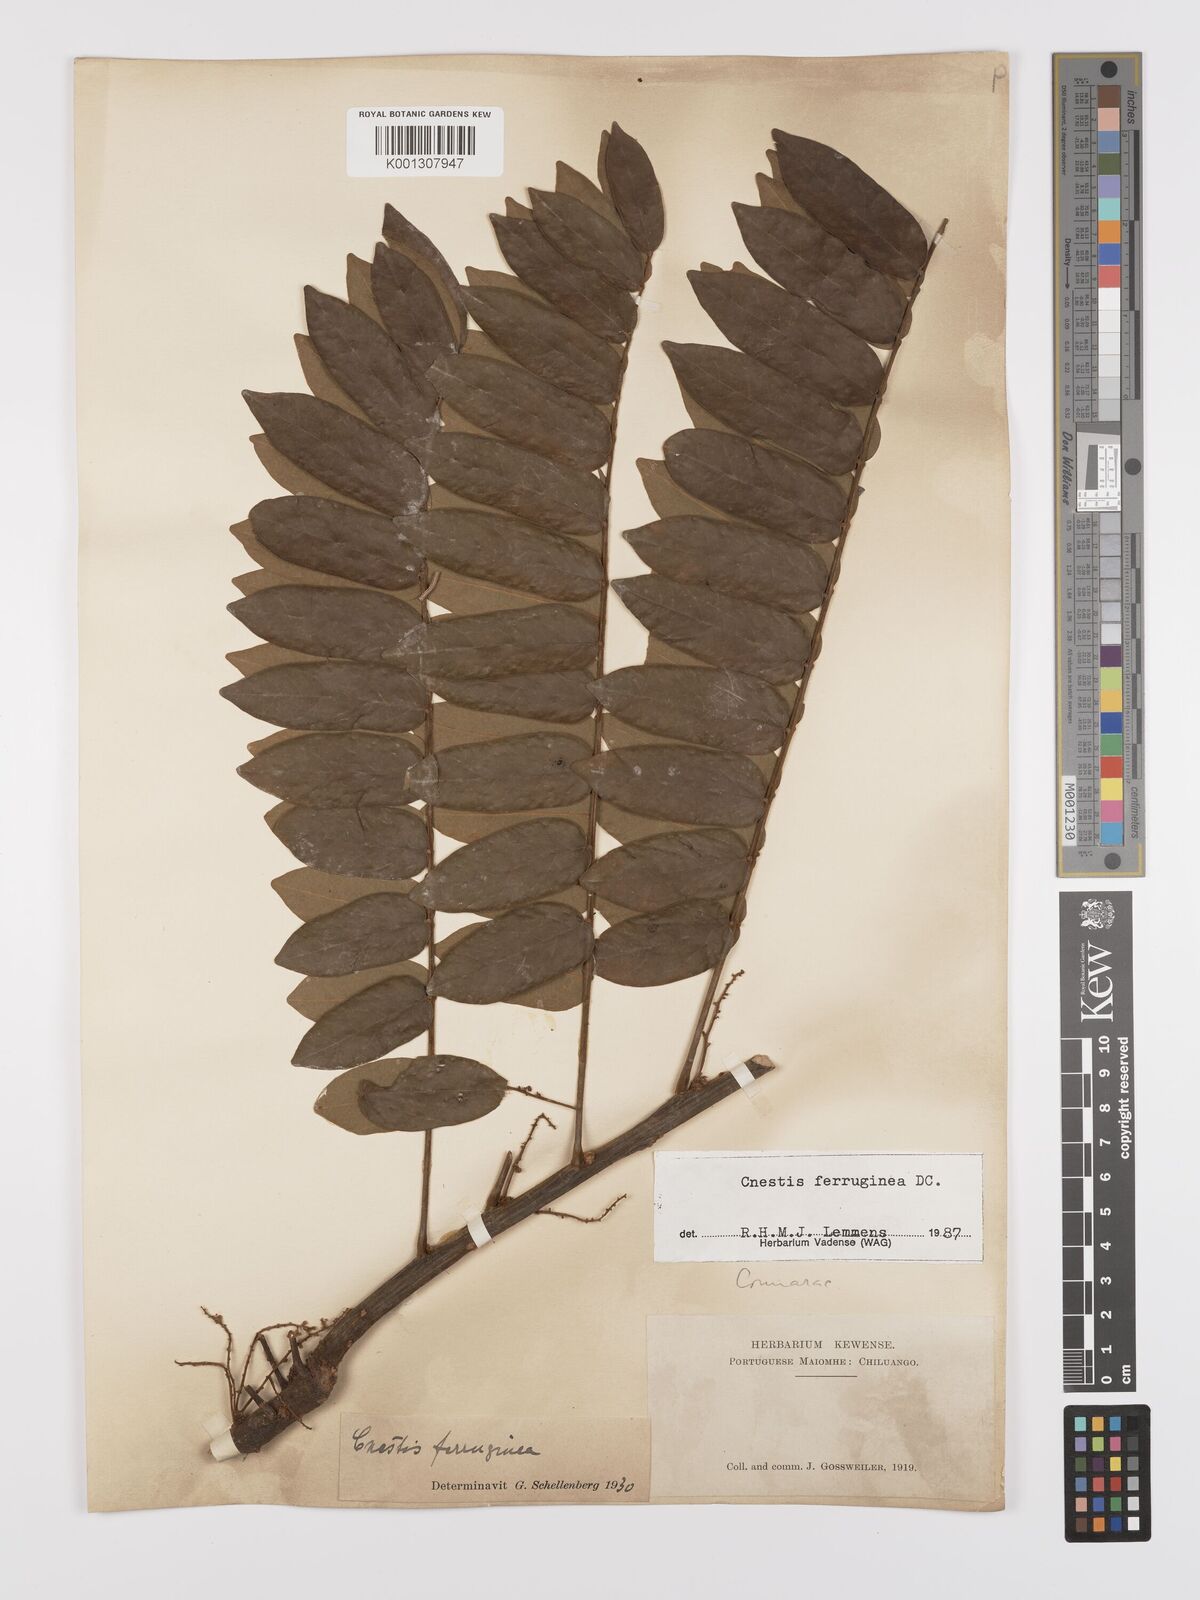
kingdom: Plantae
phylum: Tracheophyta
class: Magnoliopsida
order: Oxalidales
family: Connaraceae
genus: Cnestis
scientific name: Cnestis ferruginea
